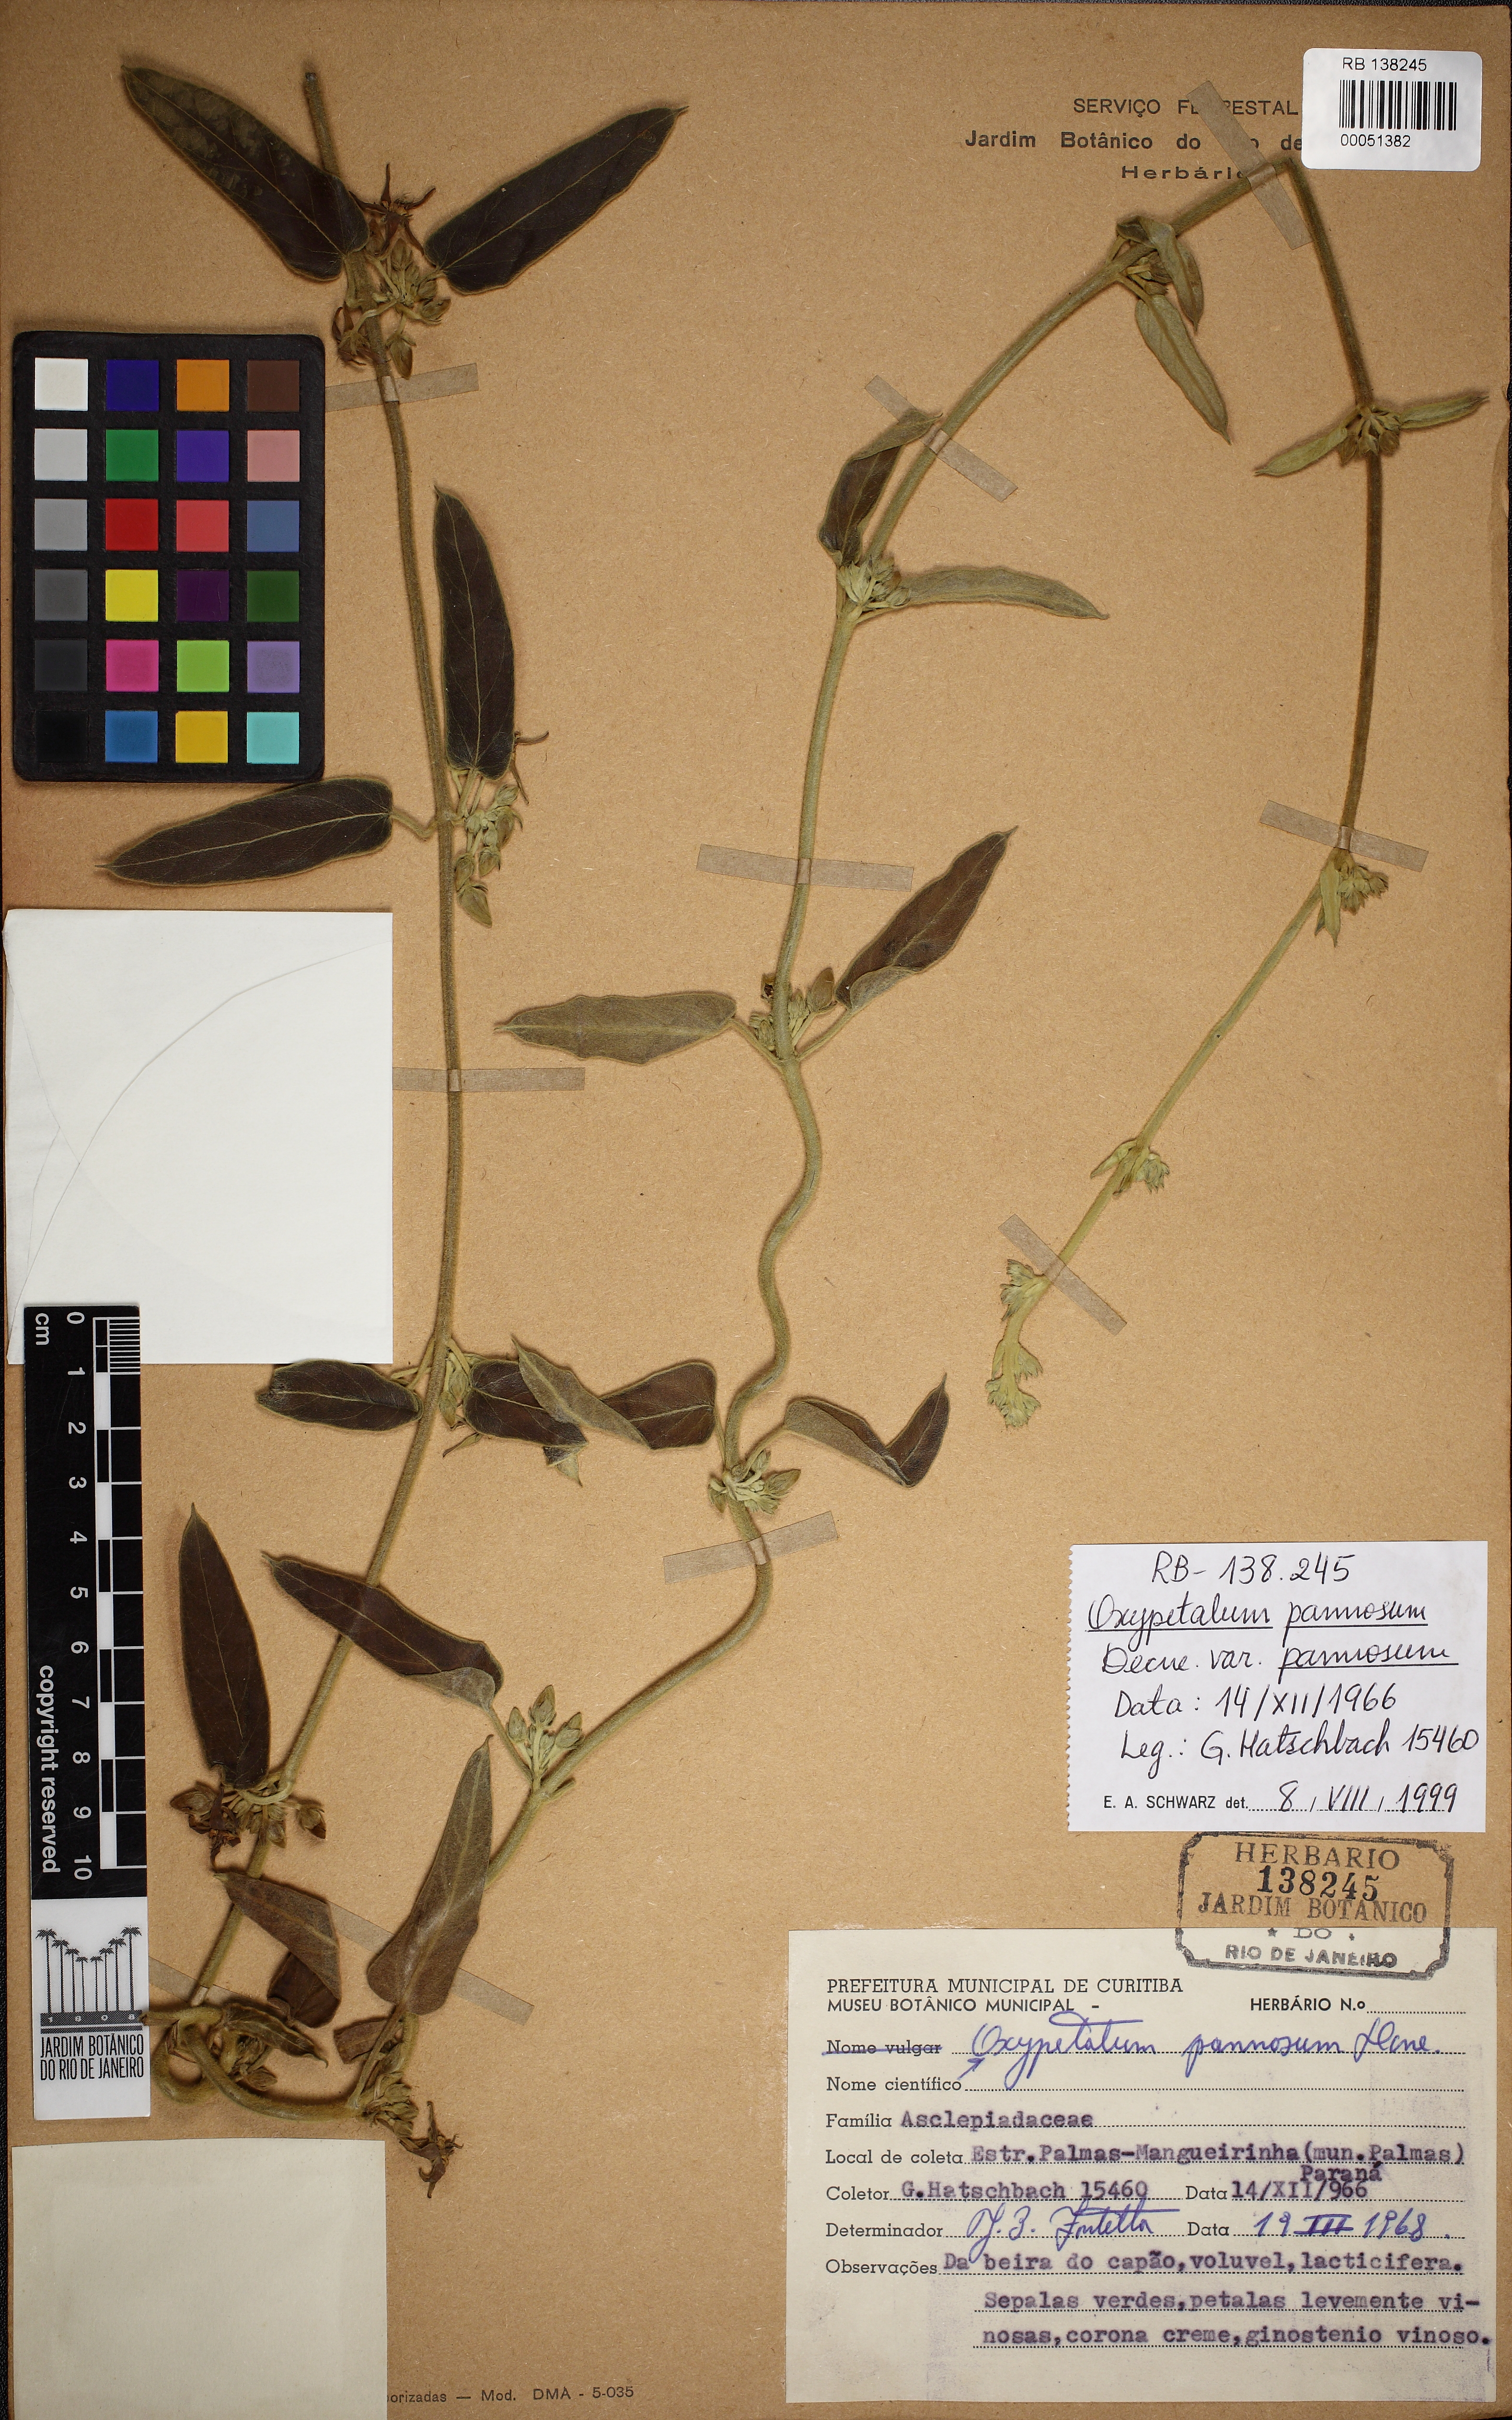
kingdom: Plantae
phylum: Tracheophyta
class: Magnoliopsida
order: Gentianales
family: Apocynaceae
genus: Oxypetalum
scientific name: Oxypetalum pannosum
